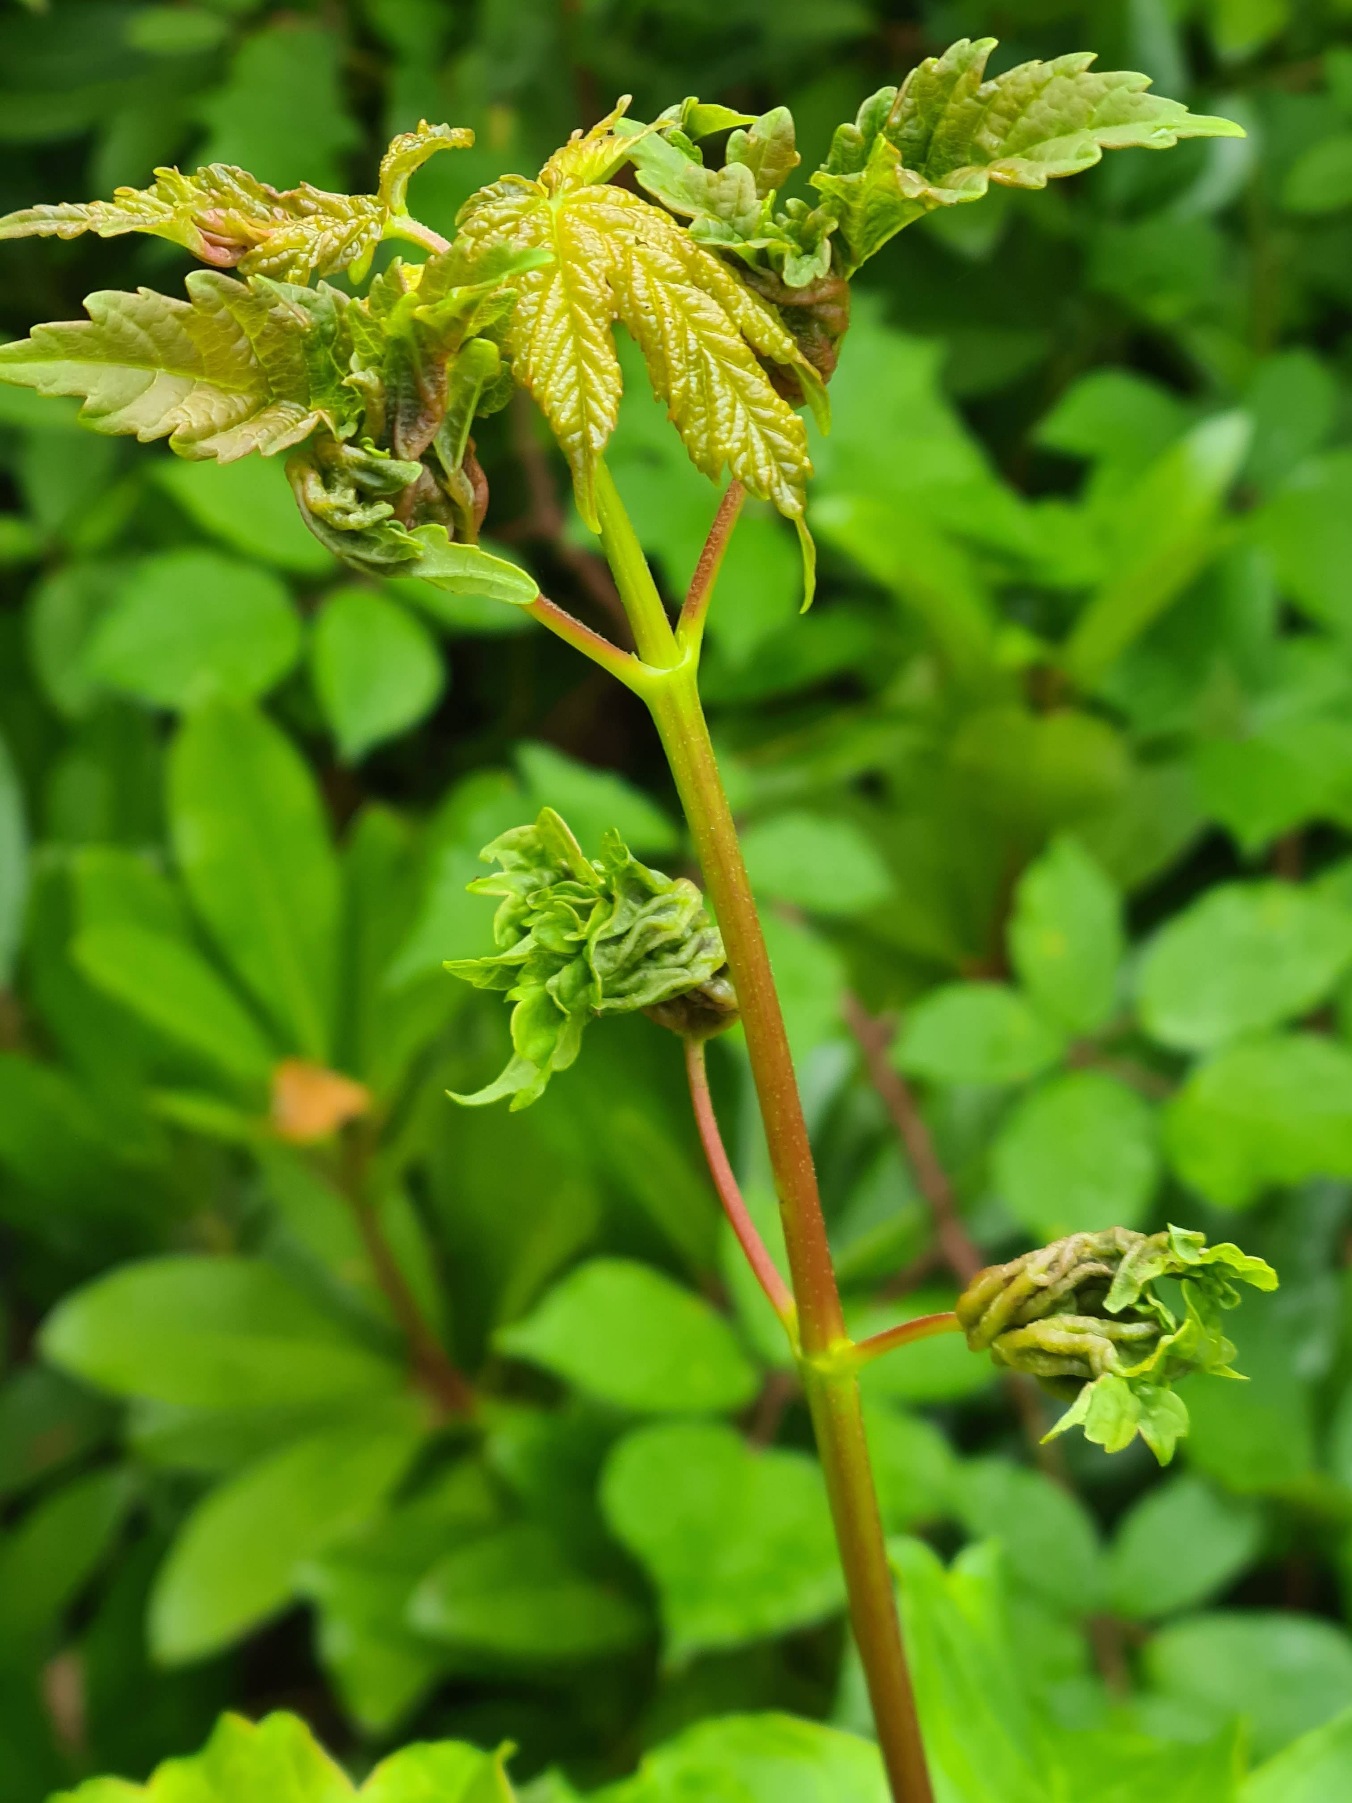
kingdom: Animalia
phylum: Arthropoda
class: Insecta
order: Diptera
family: Cecidomyiidae
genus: Dasineura
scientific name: Dasineura irregularis
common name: Ahornkrusegalmyg
